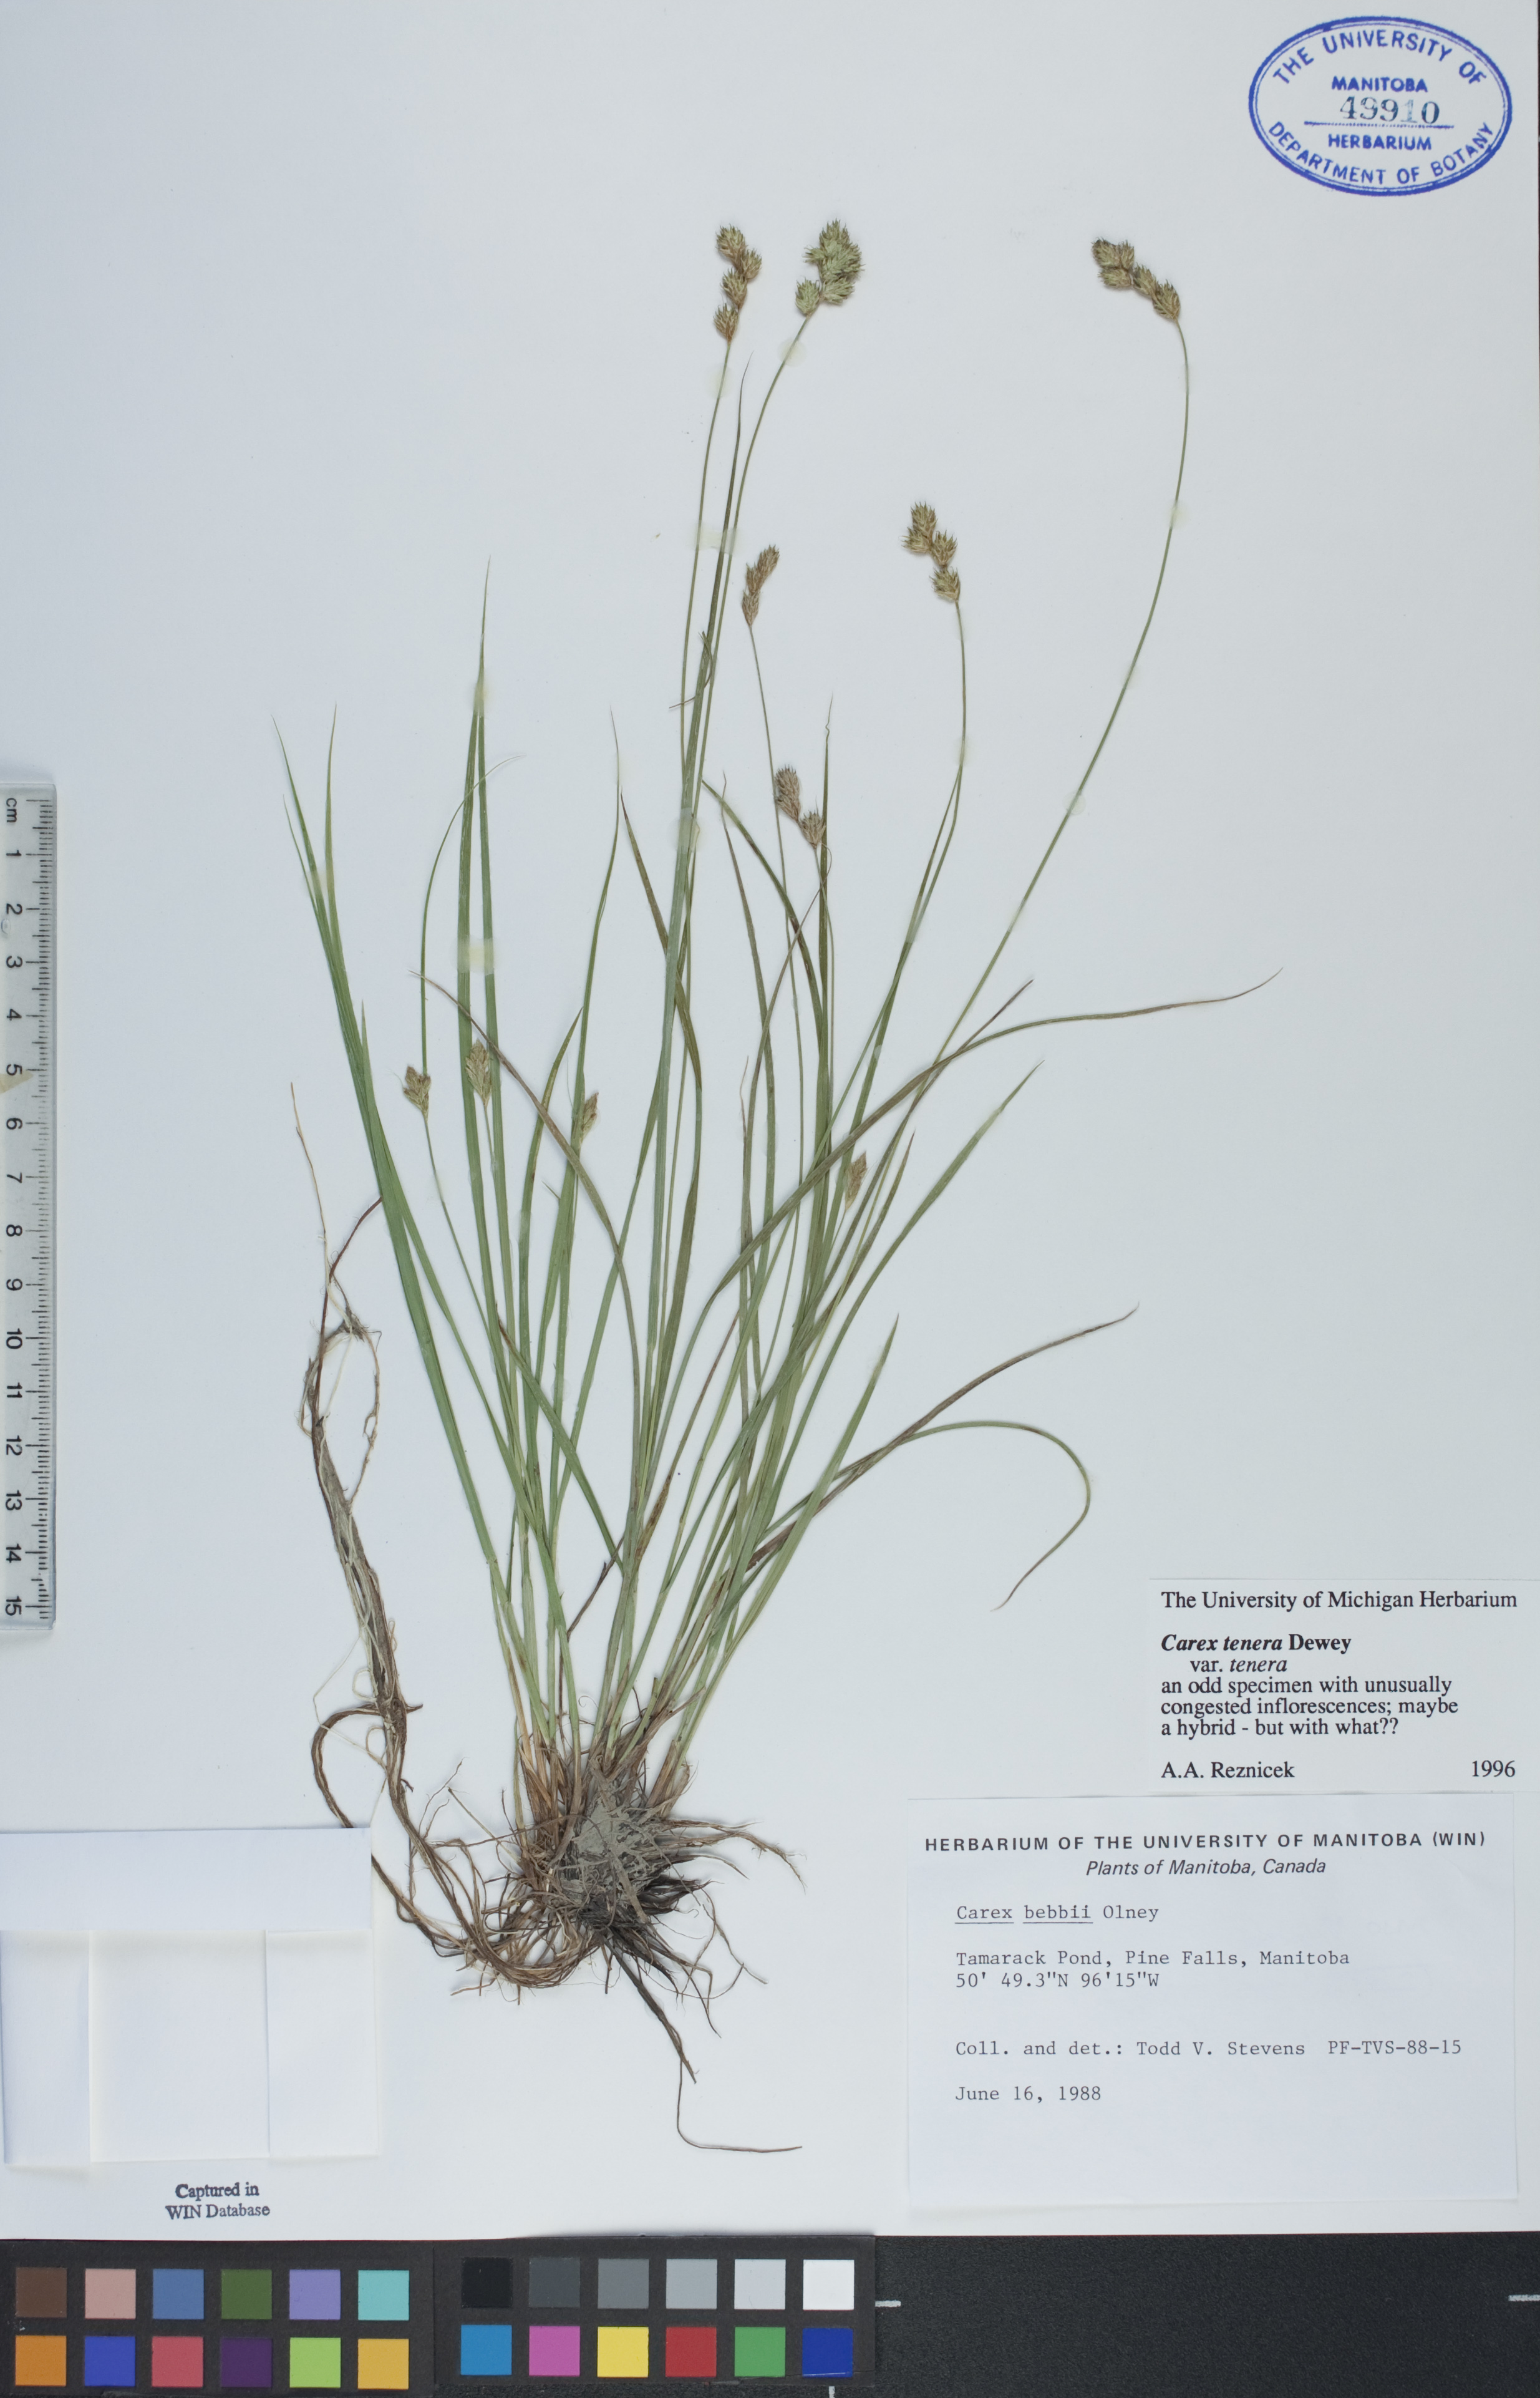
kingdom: Plantae
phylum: Tracheophyta
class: Liliopsida
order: Poales
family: Cyperaceae
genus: Carex
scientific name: Carex tenera
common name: Broad-fruited sedge
